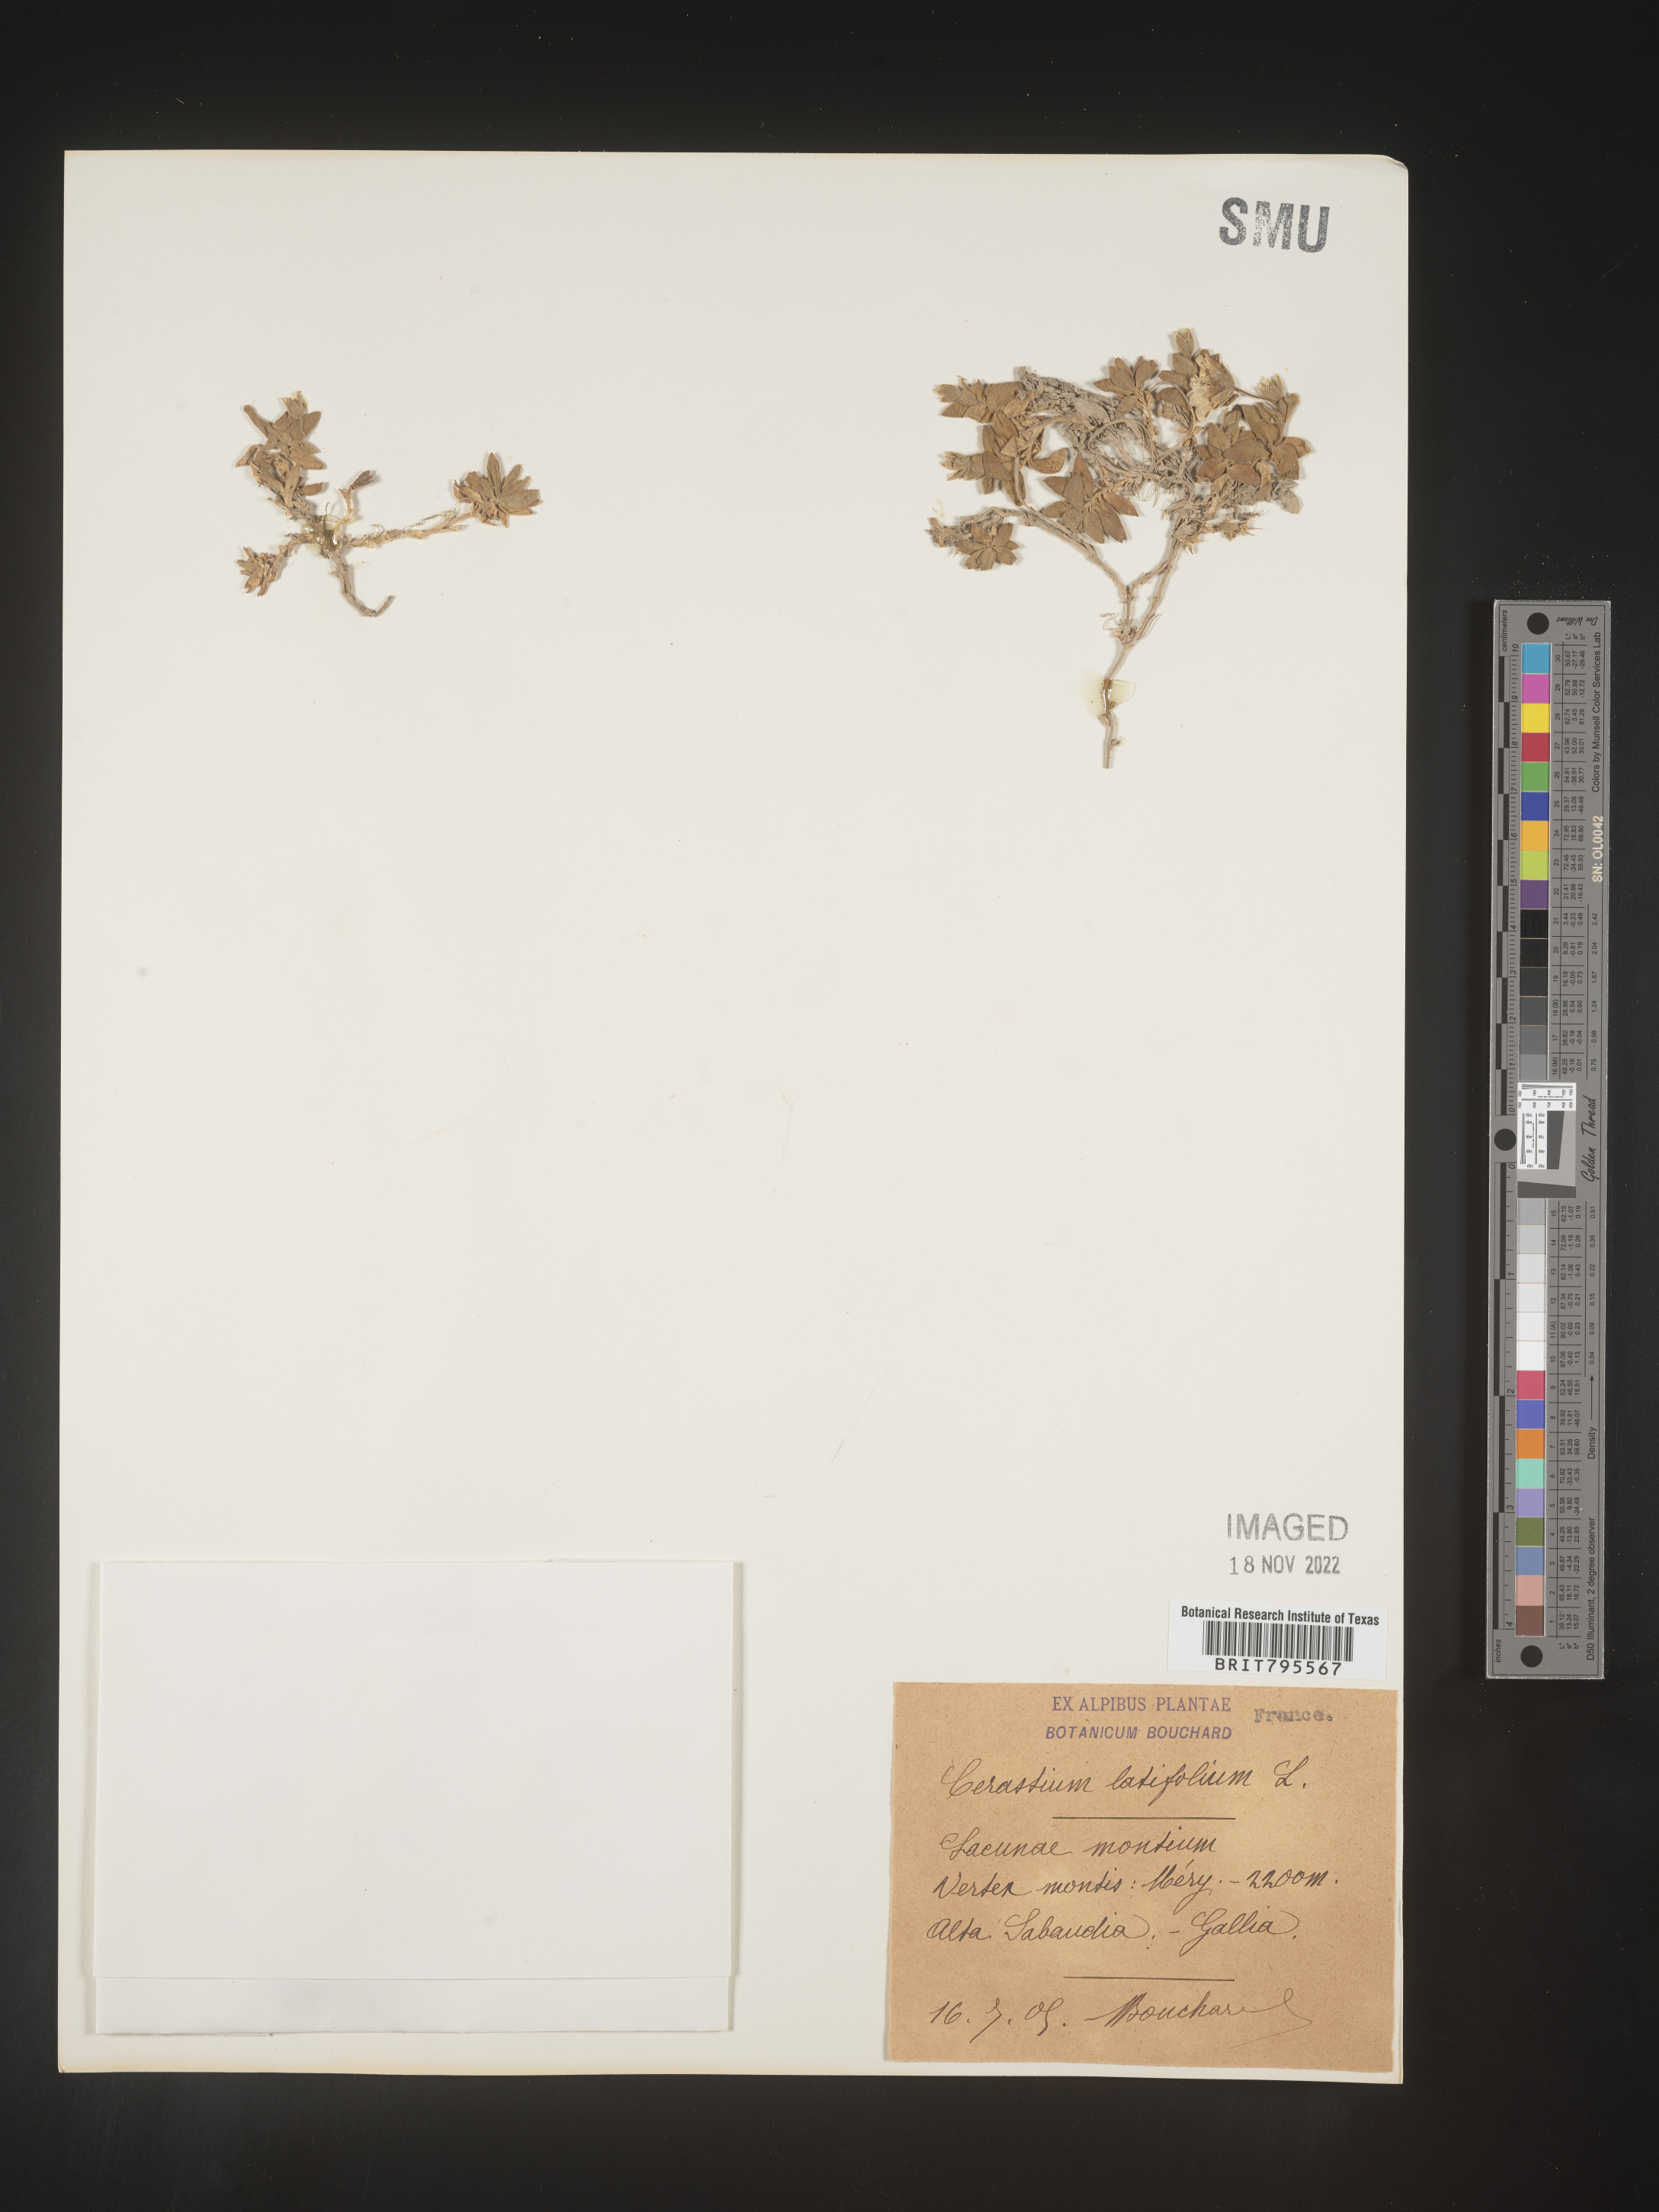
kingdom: Plantae
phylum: Tracheophyta
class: Magnoliopsida
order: Caryophyllales
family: Caryophyllaceae
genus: Cerastium
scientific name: Cerastium
